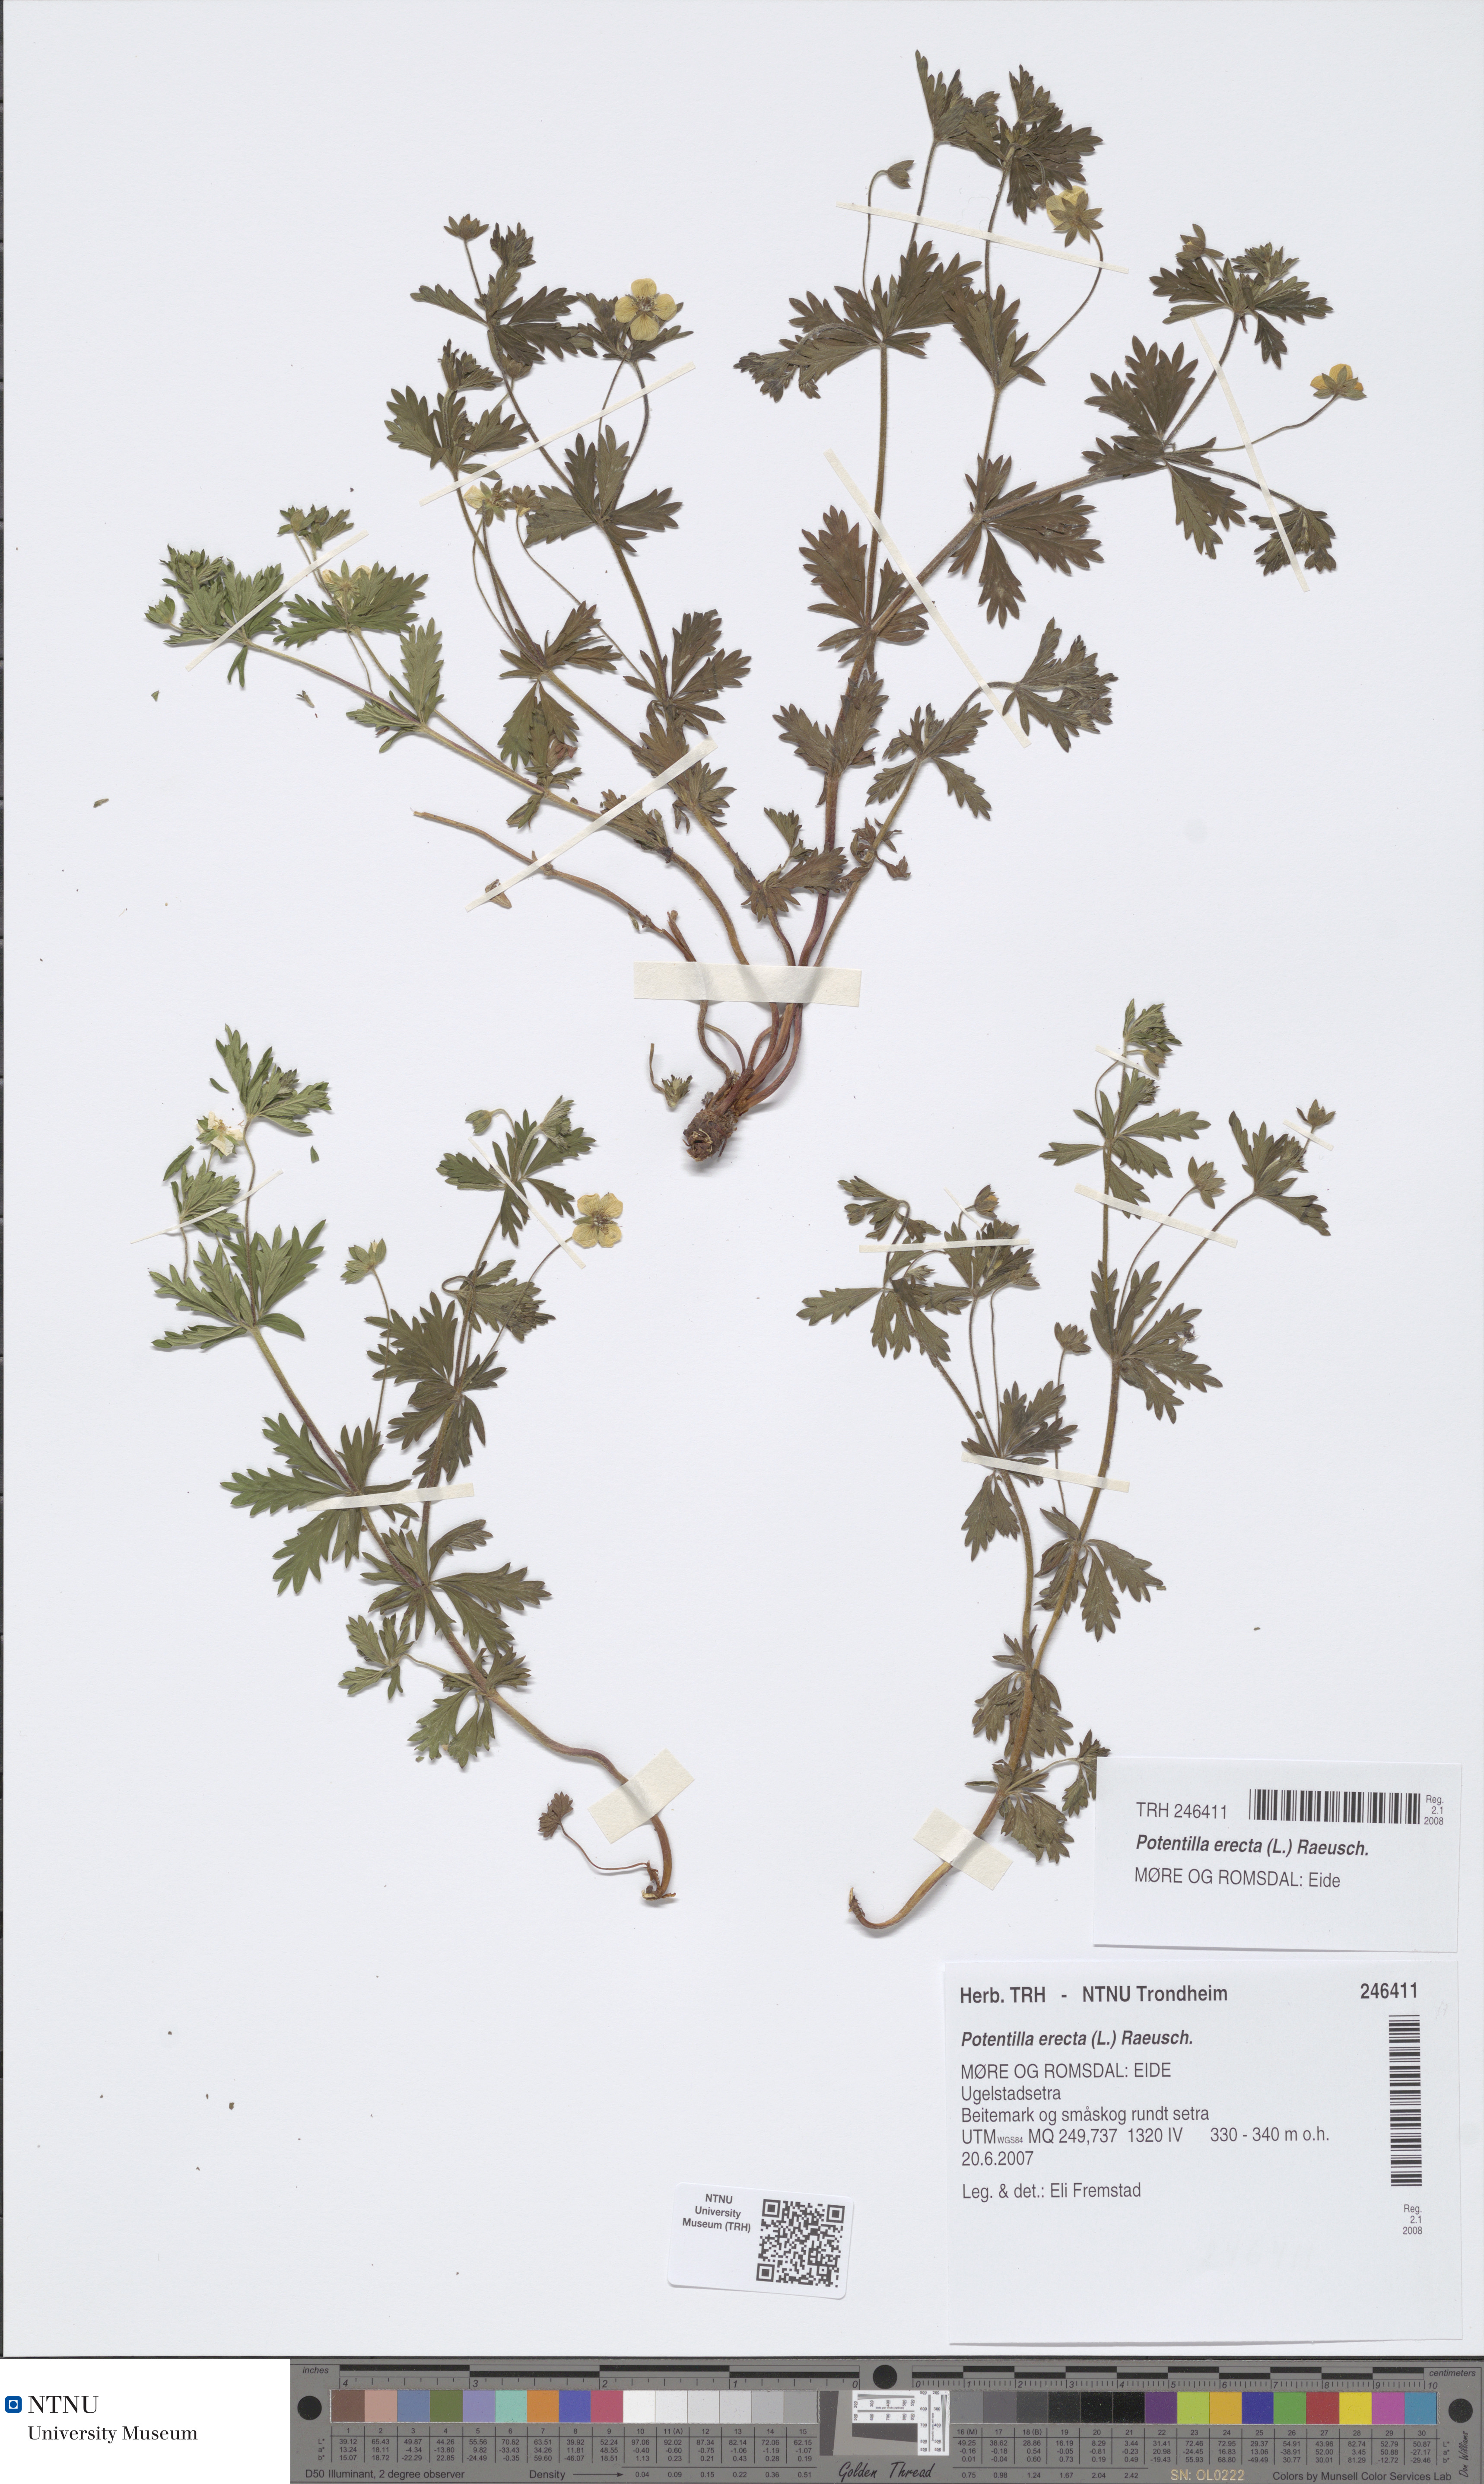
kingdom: Plantae
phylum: Tracheophyta
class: Magnoliopsida
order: Rosales
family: Rosaceae
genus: Potentilla
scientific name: Potentilla erecta
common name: Tormentil
